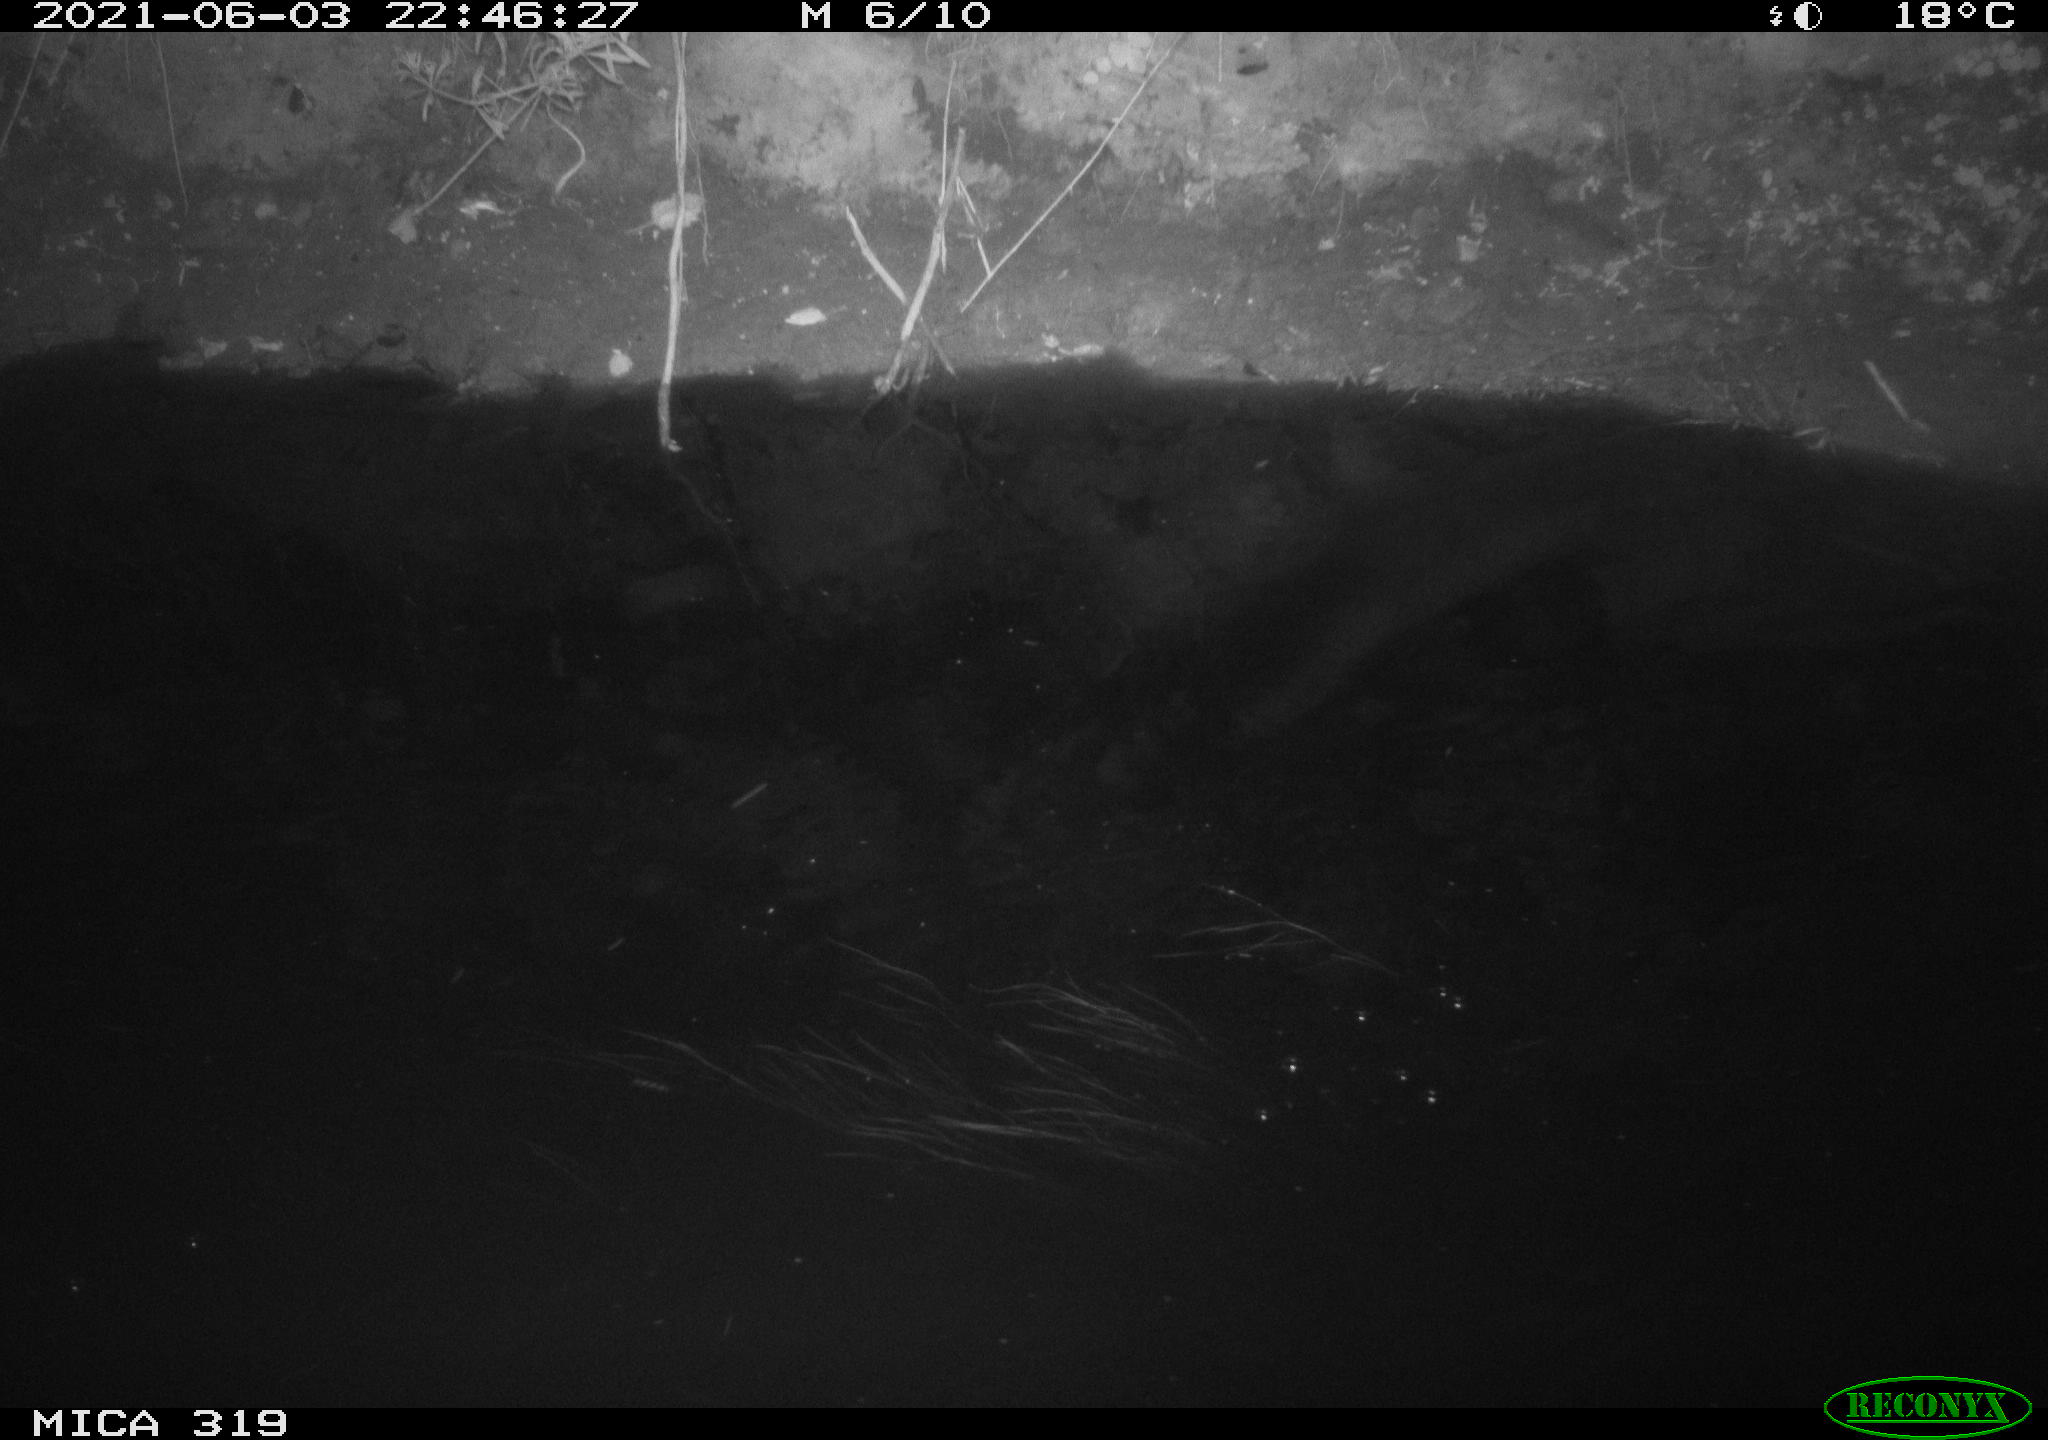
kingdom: Animalia
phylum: Chordata
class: Aves
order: Pelecaniformes
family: Ardeidae
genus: Ardea
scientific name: Ardea cinerea
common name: Grey heron
